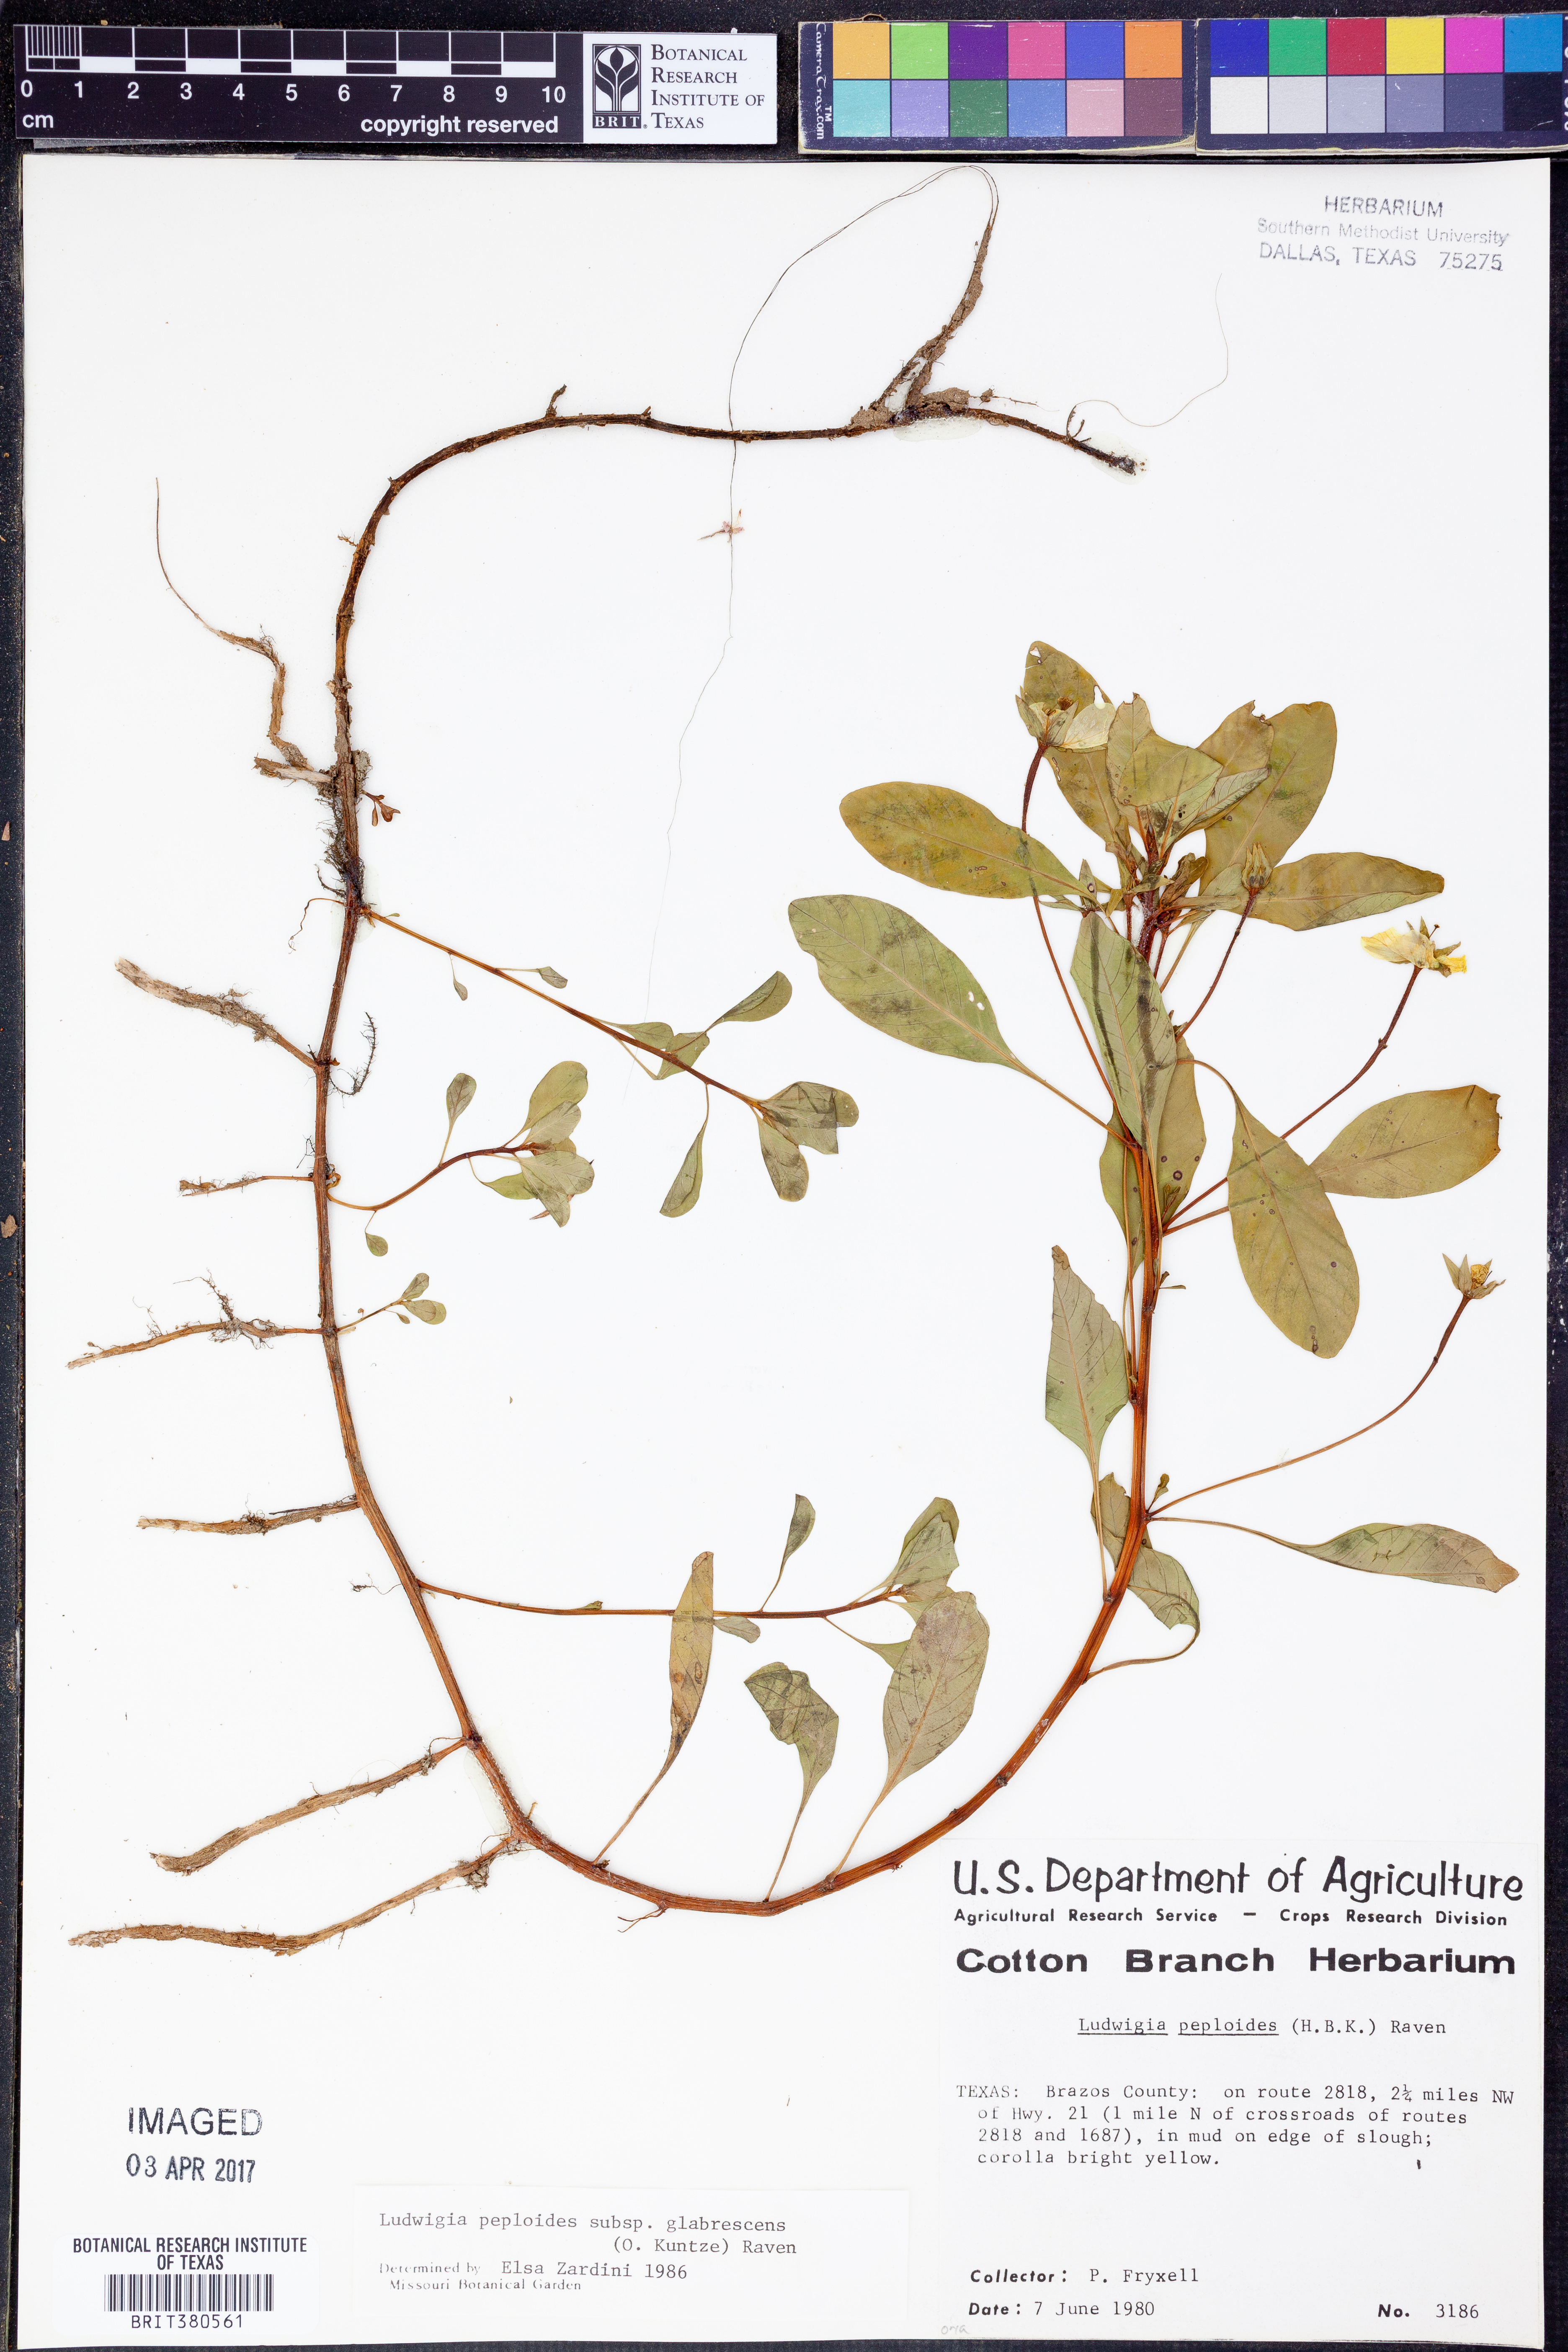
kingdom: Plantae
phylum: Tracheophyta
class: Magnoliopsida
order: Myrtales
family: Onagraceae
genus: Ludwigia
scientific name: Ludwigia peploides
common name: Floating primrose-willow
